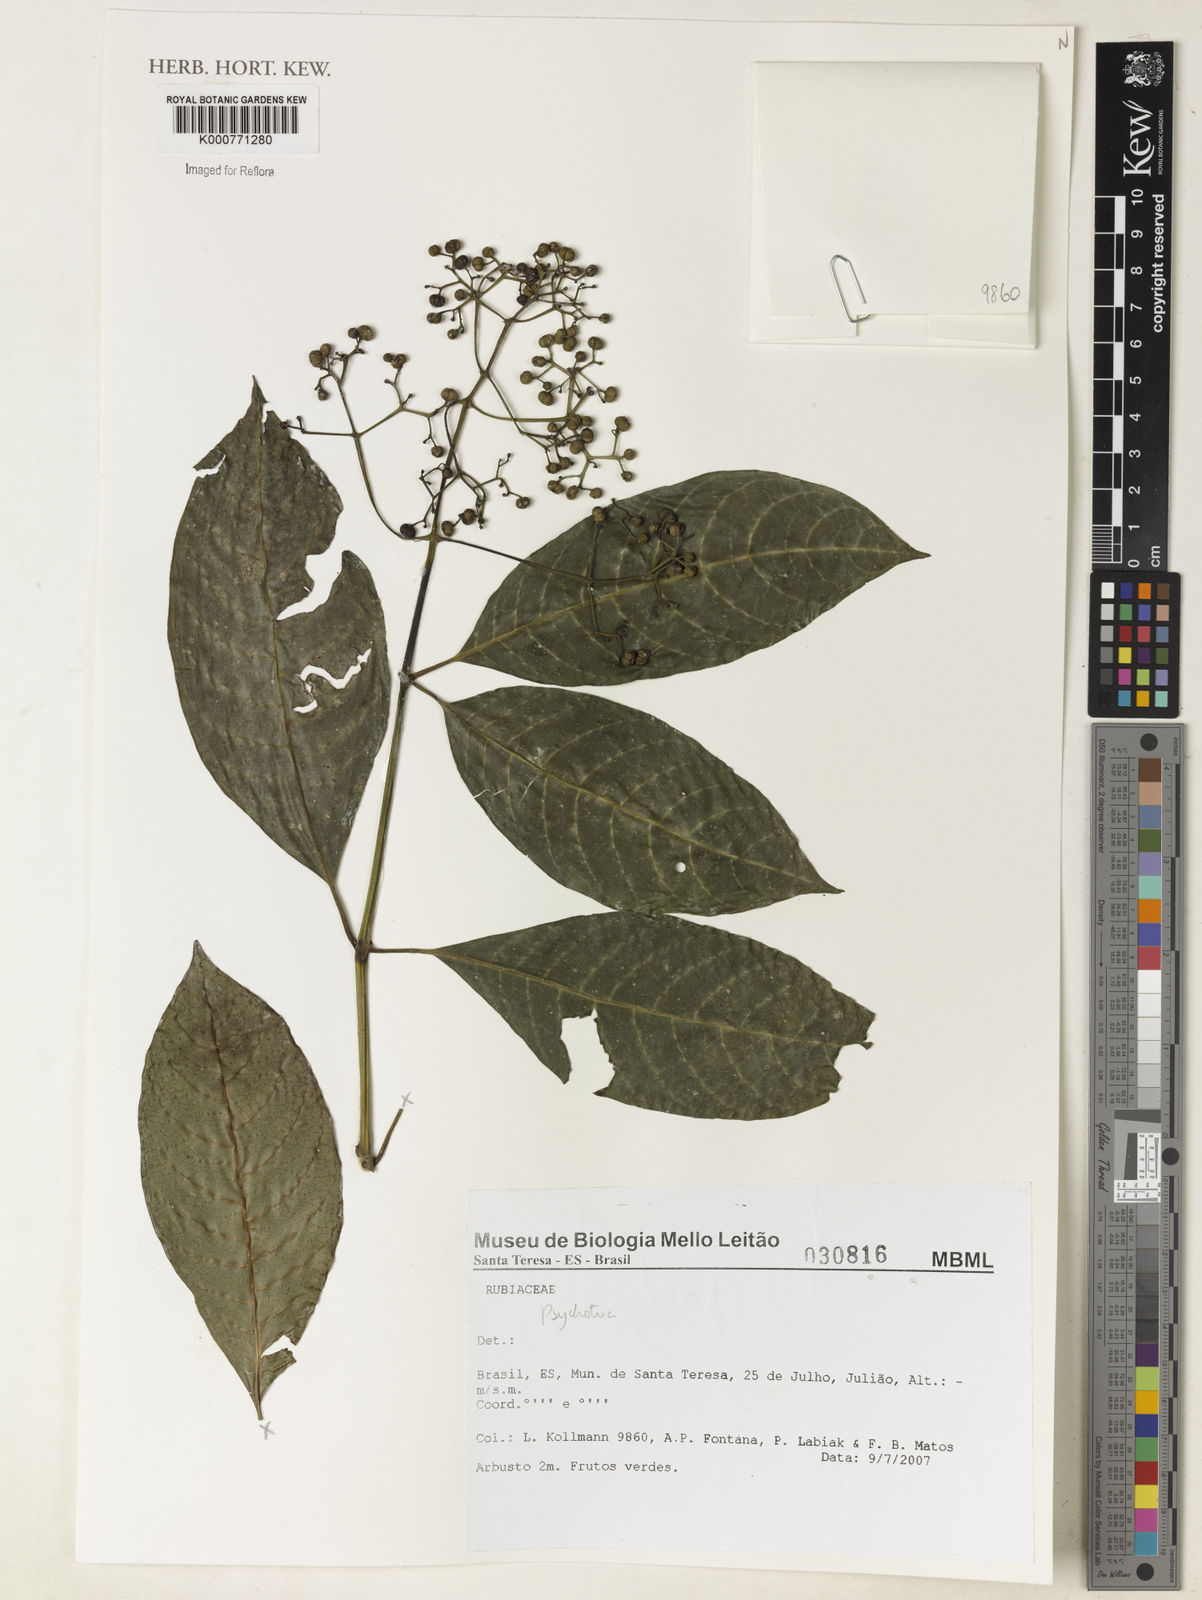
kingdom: Plantae
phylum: Tracheophyta
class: Magnoliopsida
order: Gentianales
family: Rubiaceae
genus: Psychotria
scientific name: Psychotria
